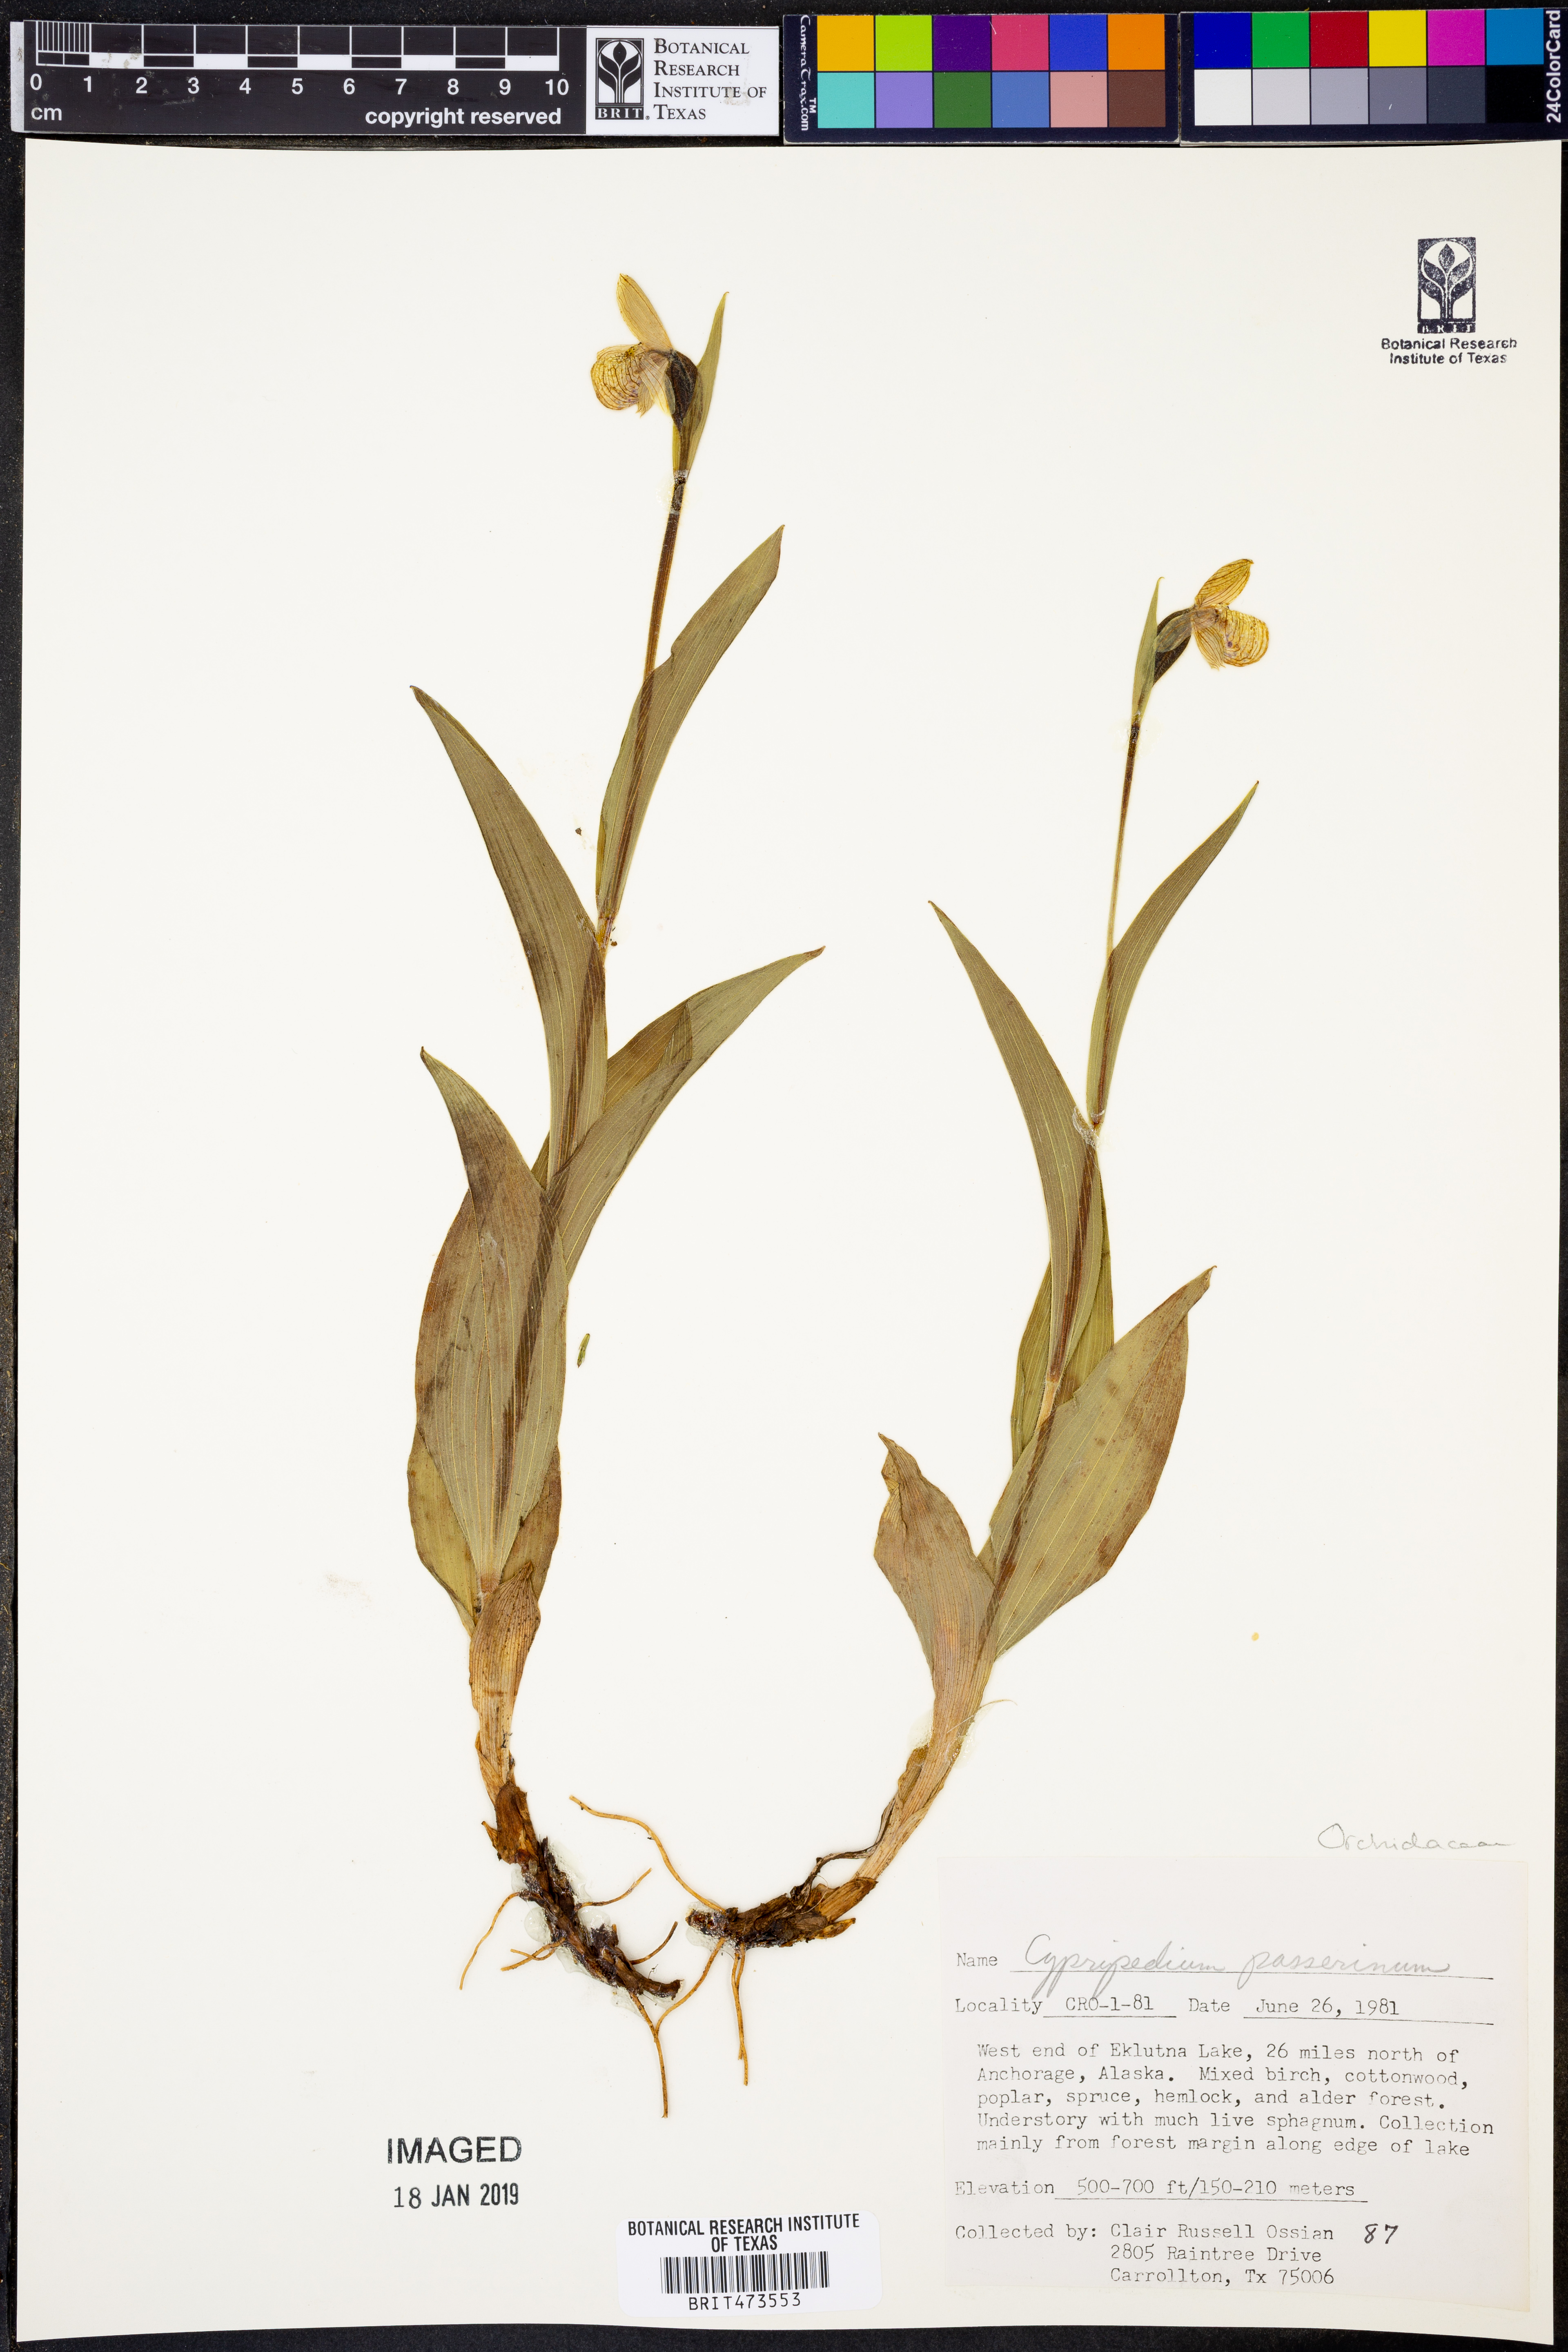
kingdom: Plantae
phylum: Tracheophyta
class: Liliopsida
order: Asparagales
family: Orchidaceae
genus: Cypripedium
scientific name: Cypripedium passerinum
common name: Sparrow's-egg lady's-slipper
